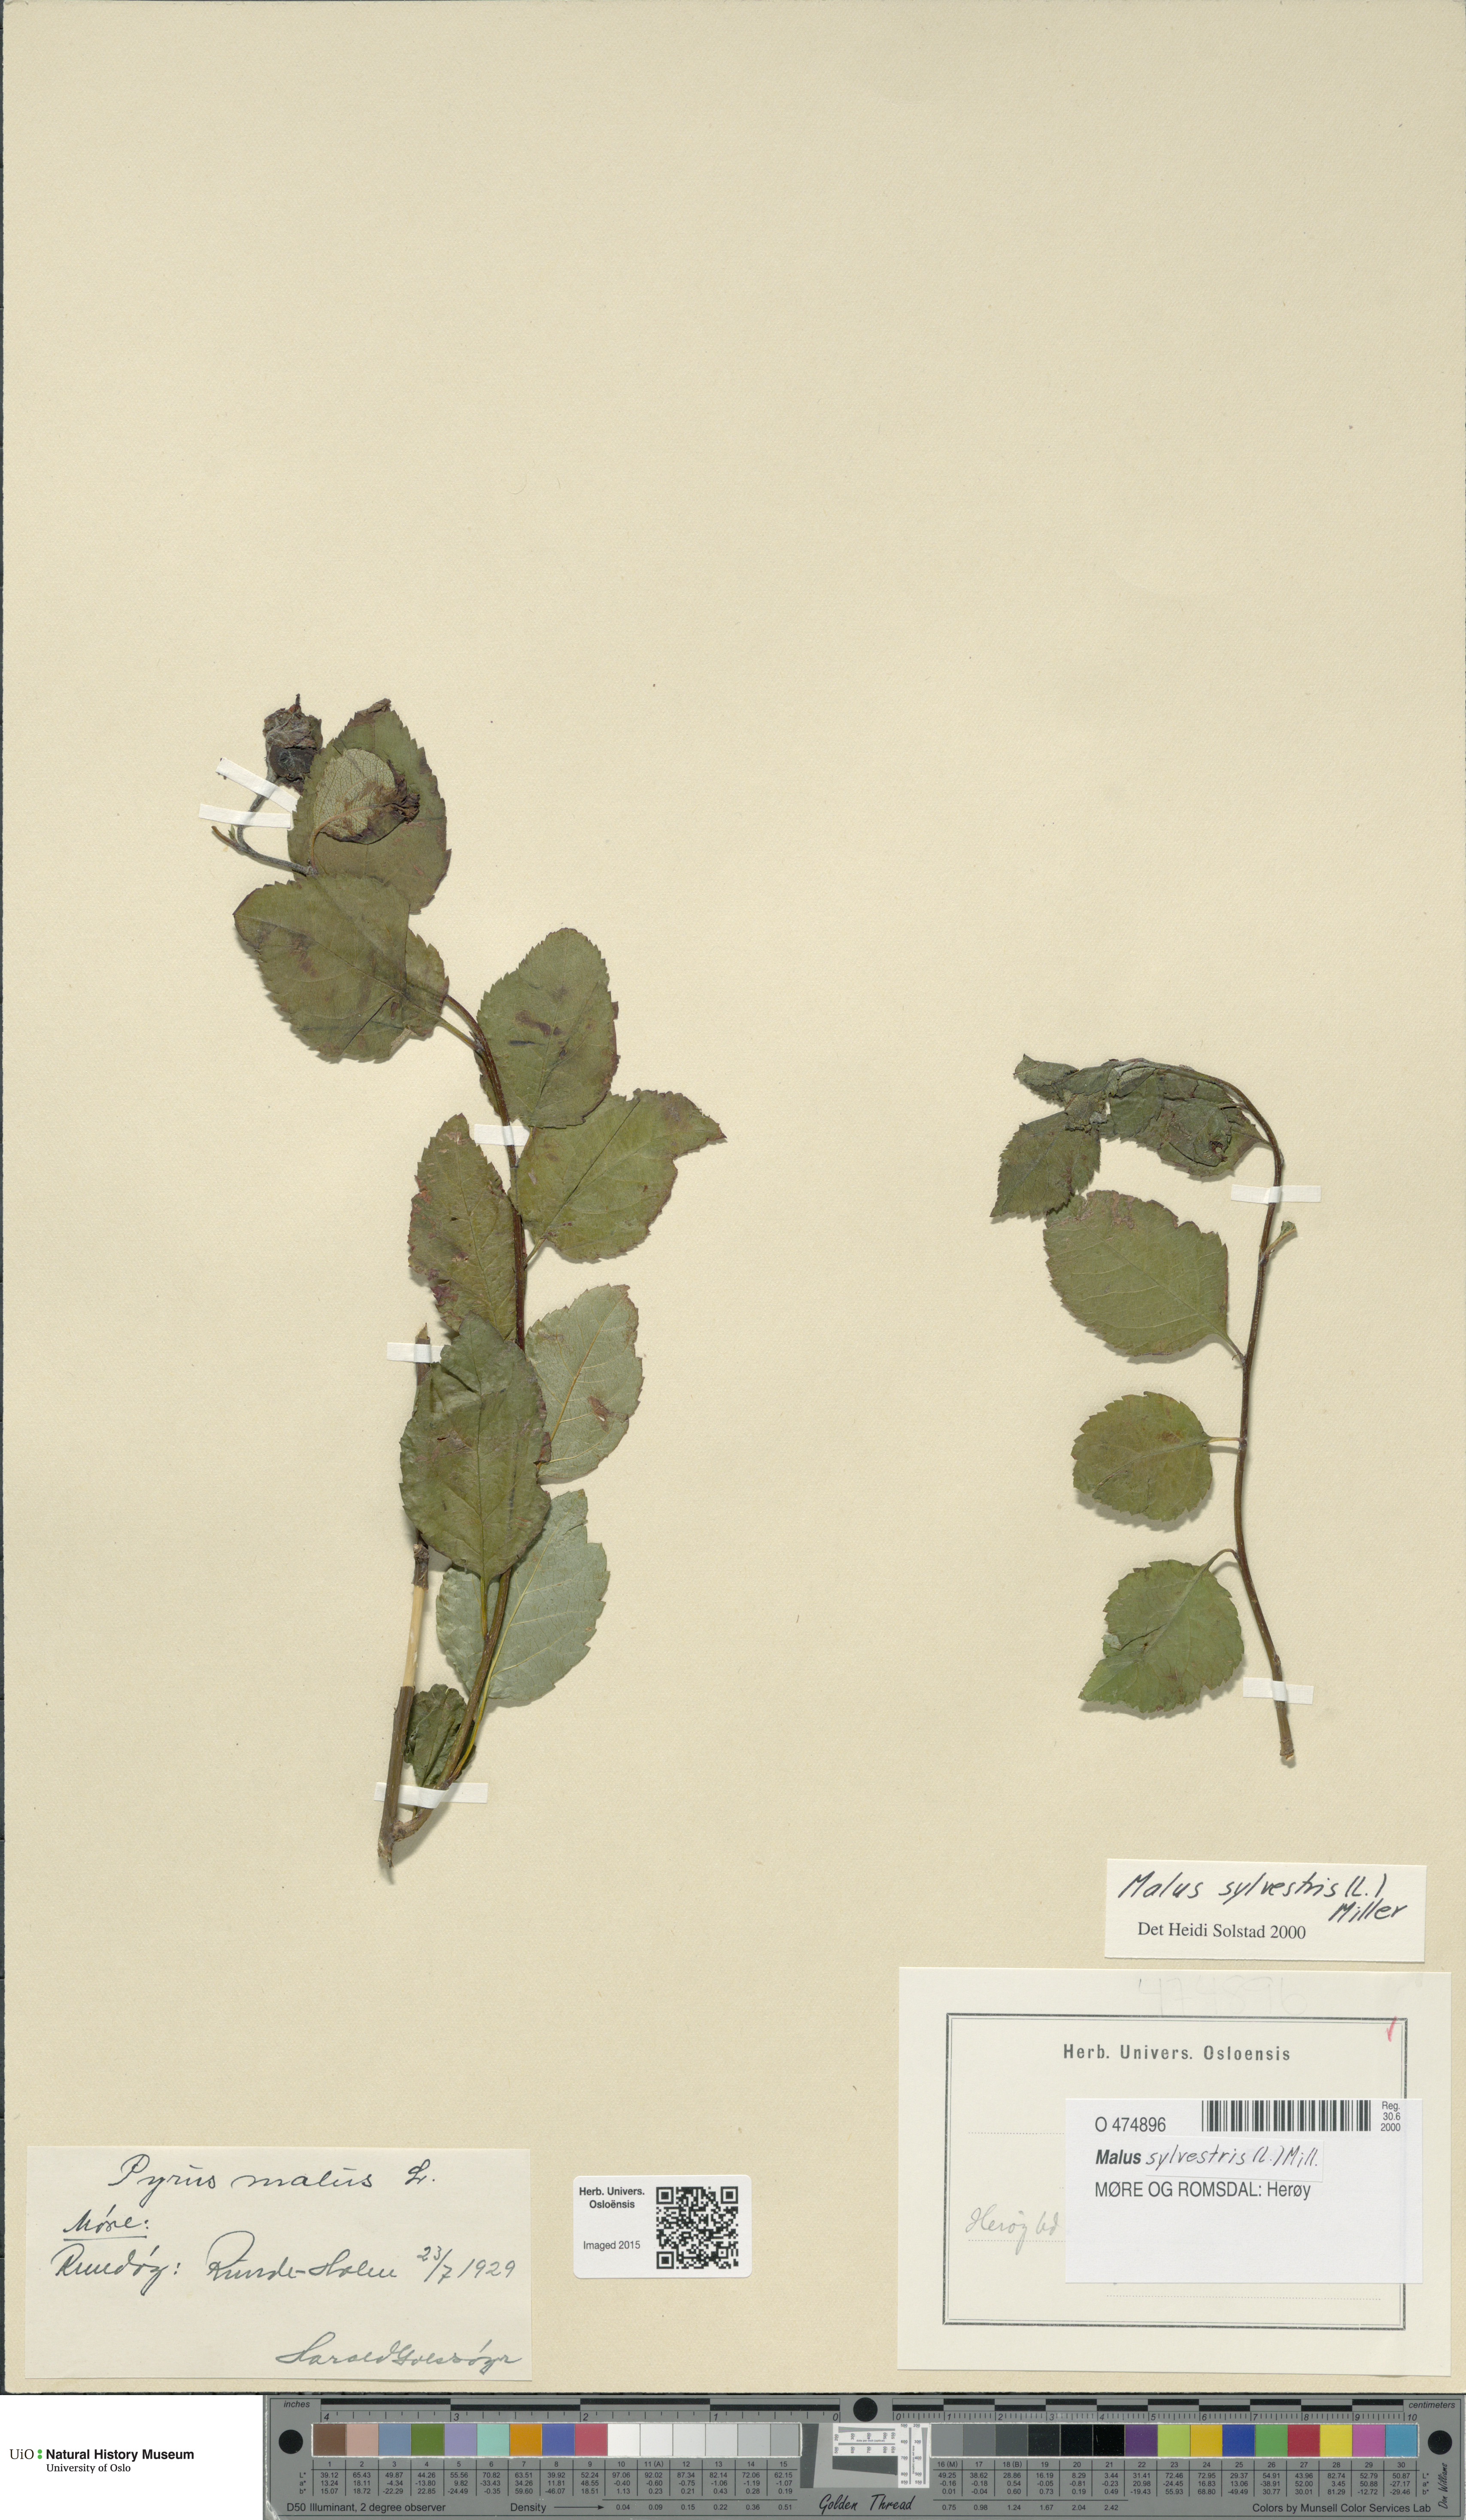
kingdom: Plantae
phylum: Tracheophyta
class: Magnoliopsida
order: Rosales
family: Rosaceae
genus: Malus
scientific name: Malus sylvestris
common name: Crab apple
